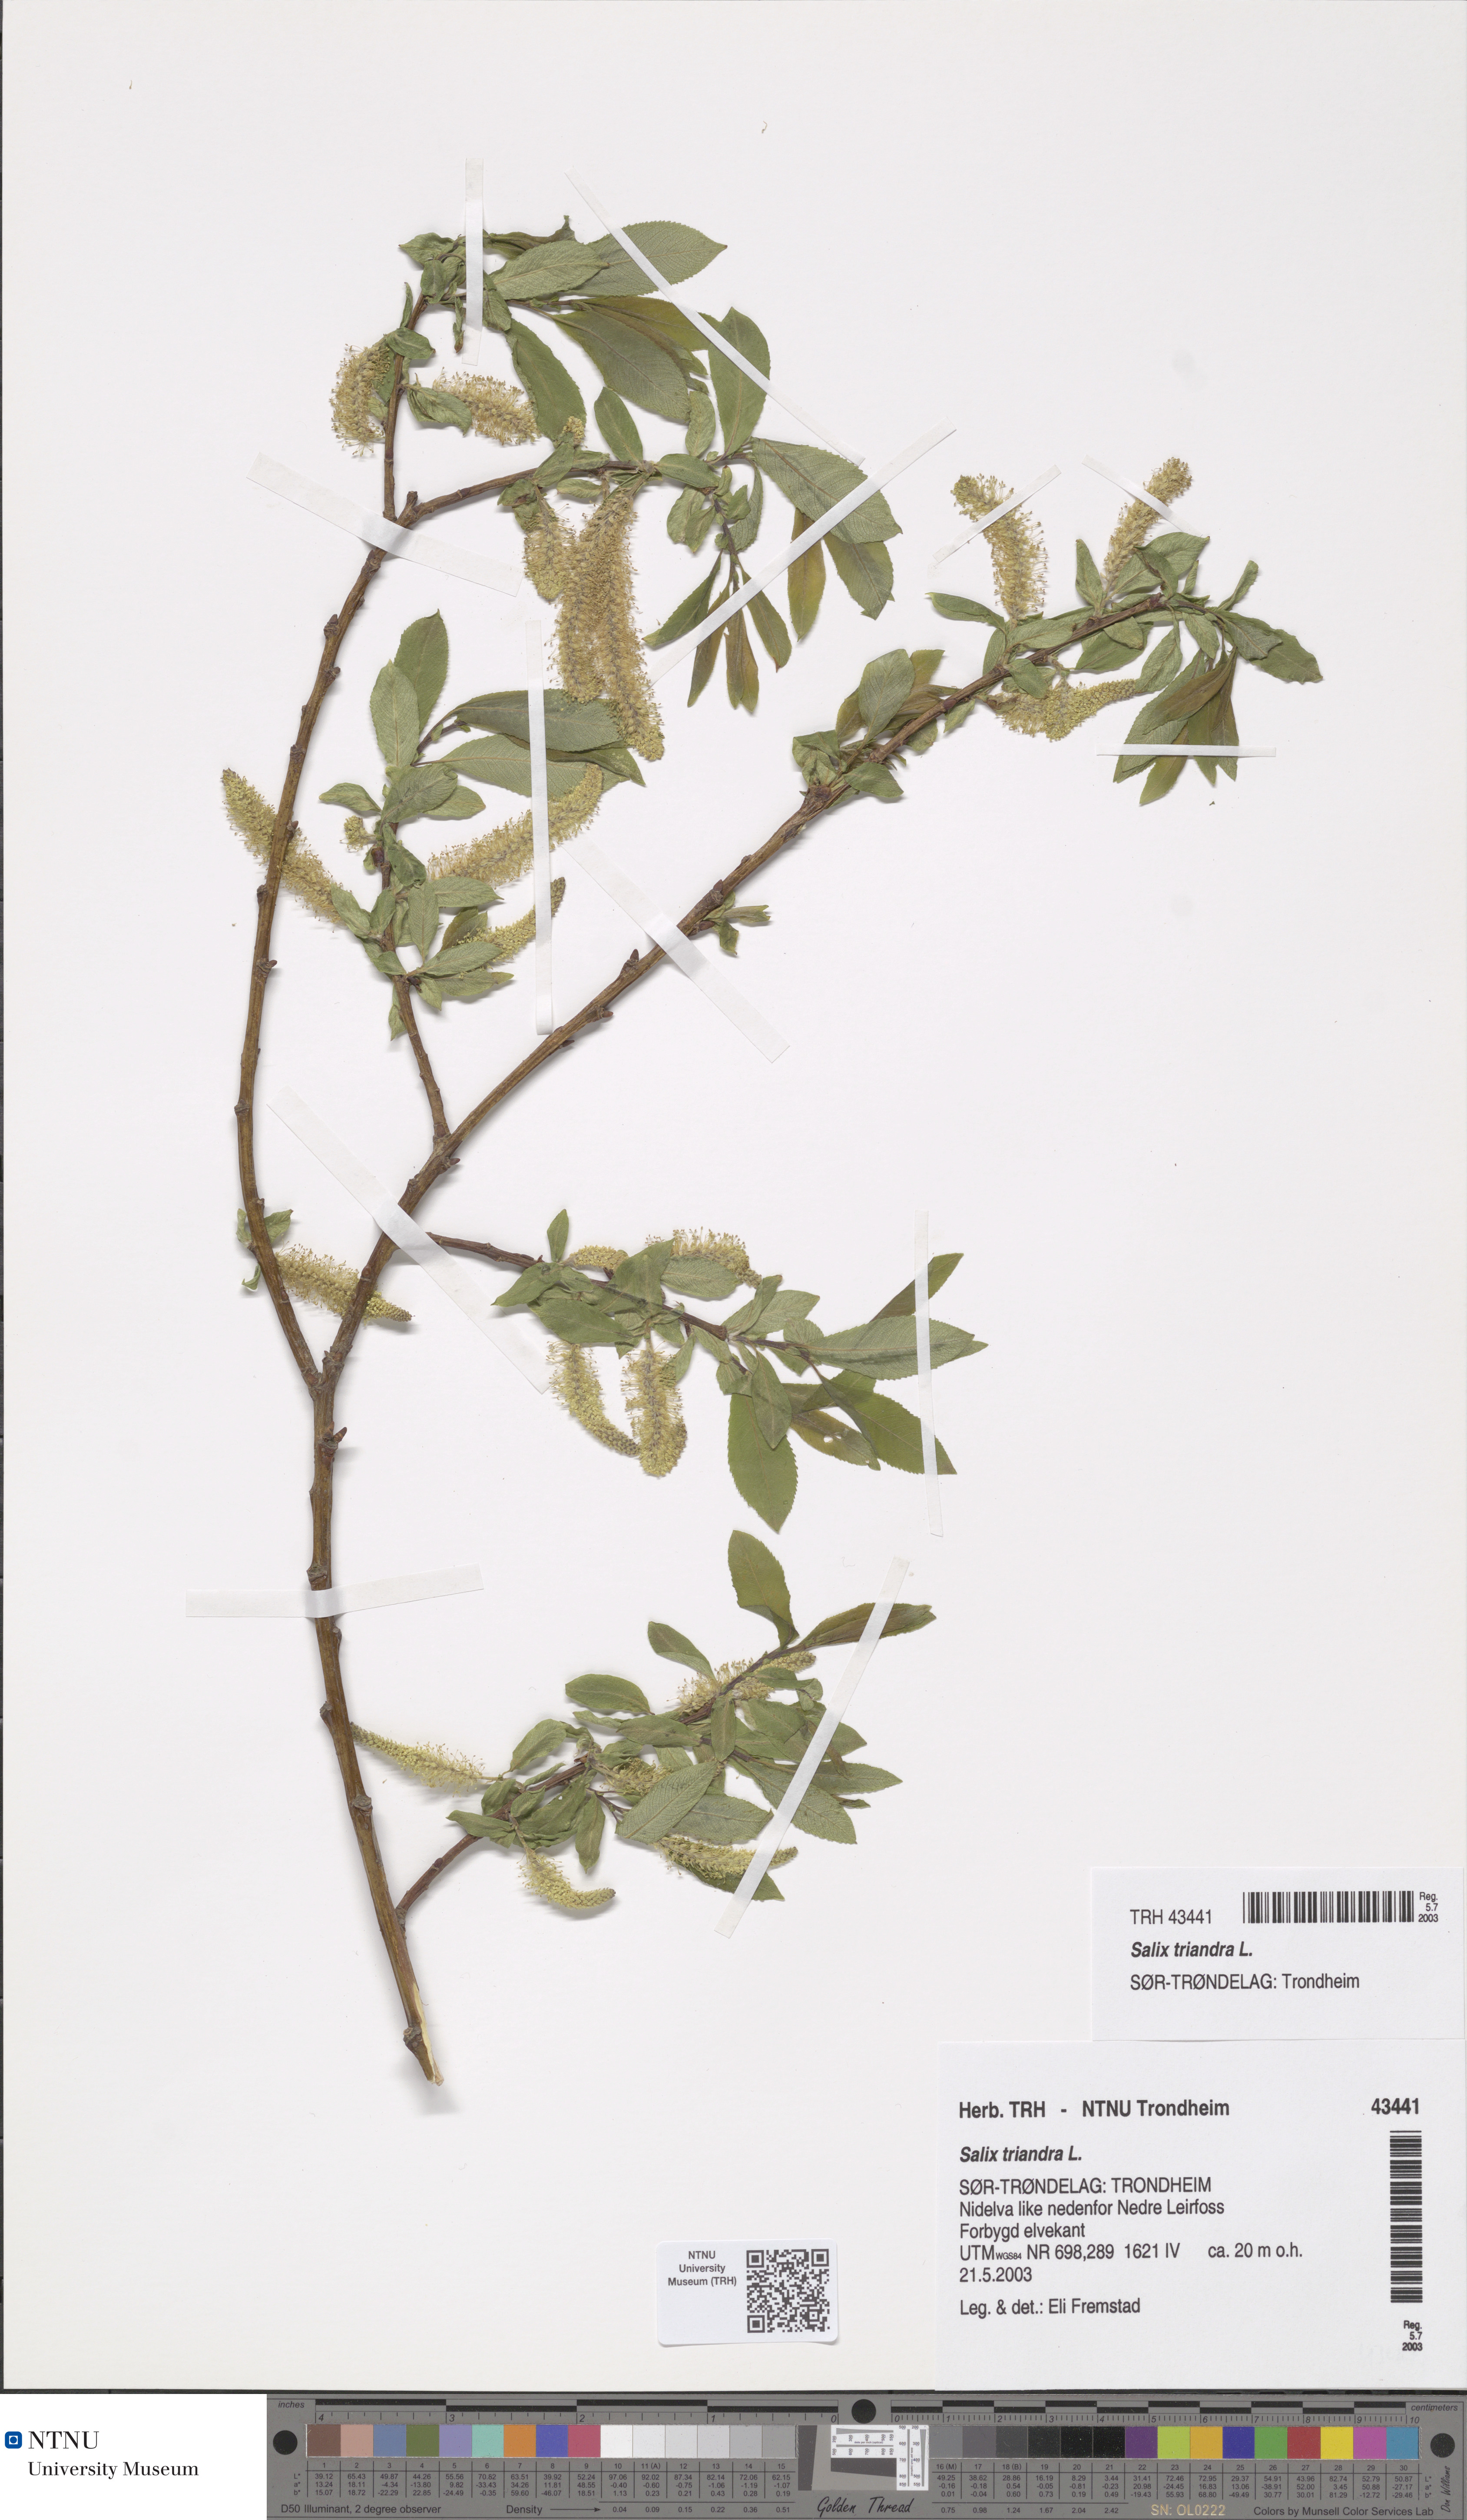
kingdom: Plantae
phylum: Tracheophyta
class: Magnoliopsida
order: Malpighiales
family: Salicaceae
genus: Salix
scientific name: Salix triandra
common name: Almond willow
